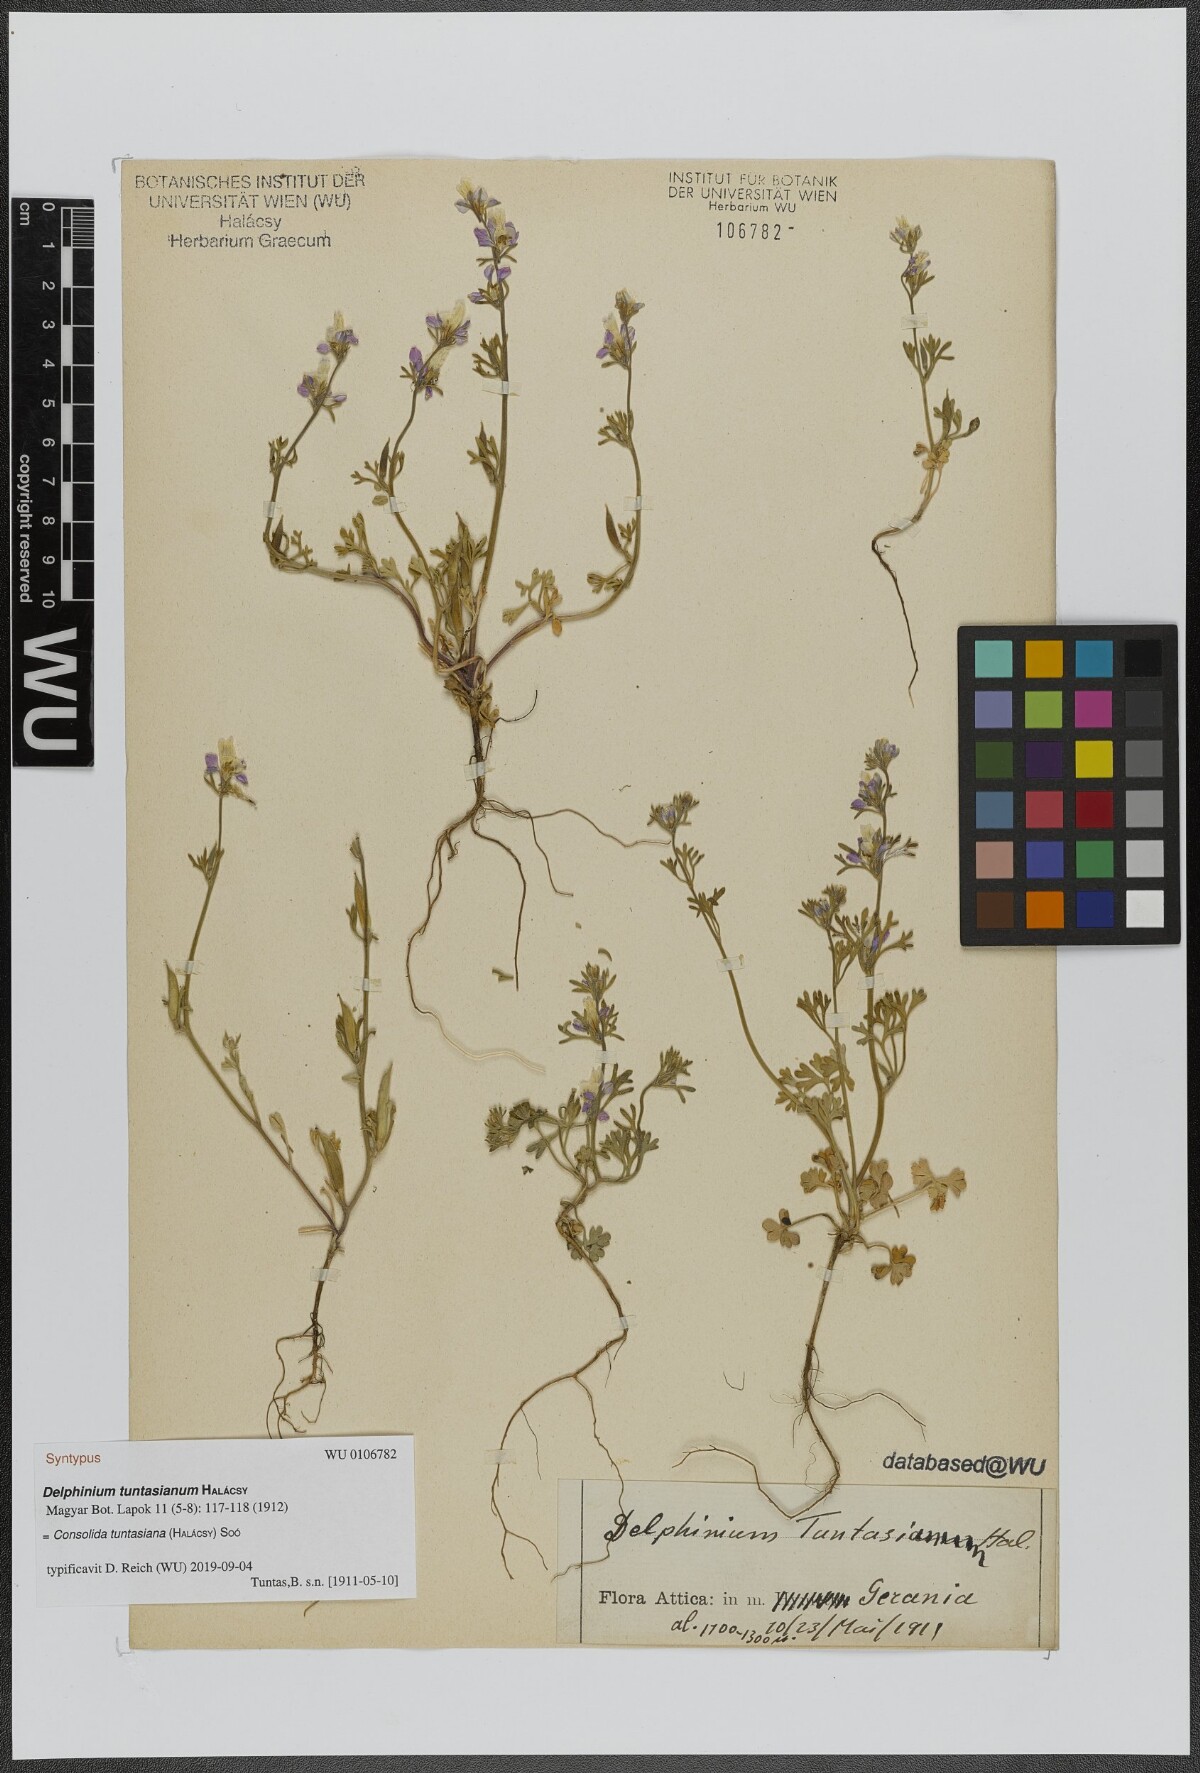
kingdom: Plantae
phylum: Tracheophyta
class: Magnoliopsida
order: Ranunculales
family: Ranunculaceae
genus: Delphinium
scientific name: Delphinium tuntasianum
